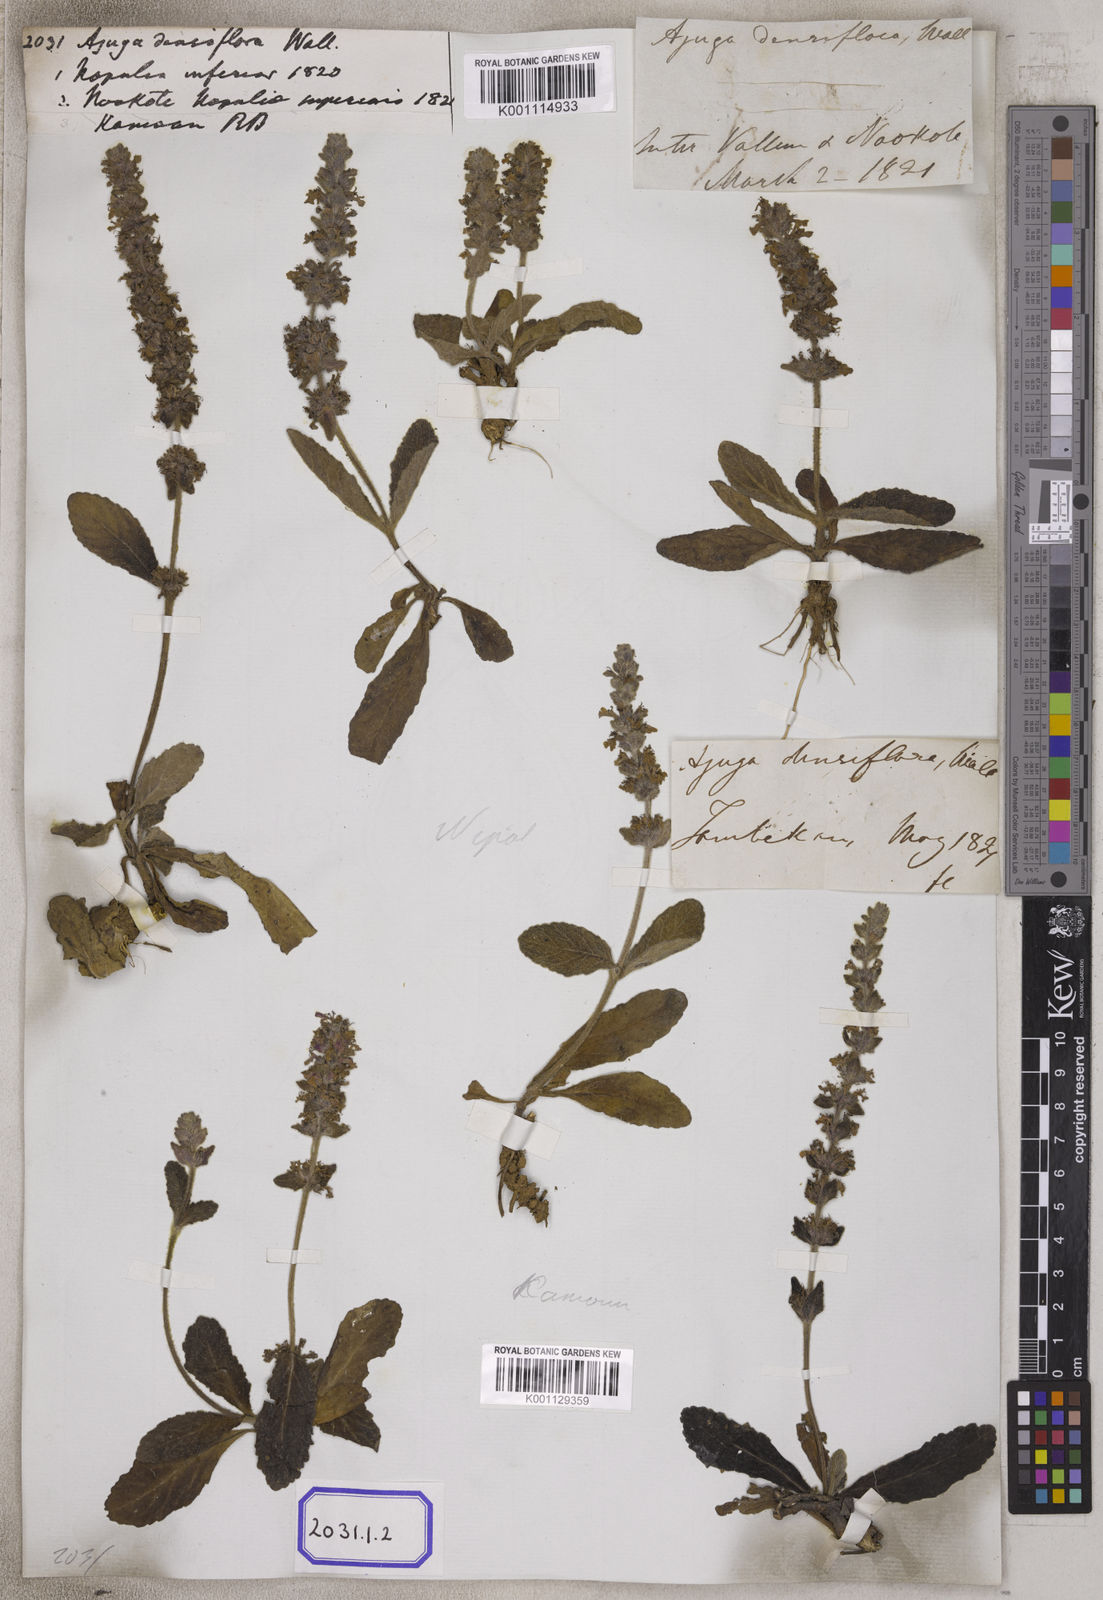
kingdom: Plantae
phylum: Tracheophyta
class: Magnoliopsida
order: Lamiales
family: Lamiaceae
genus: Ajuga
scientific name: Ajuga integrifolia
